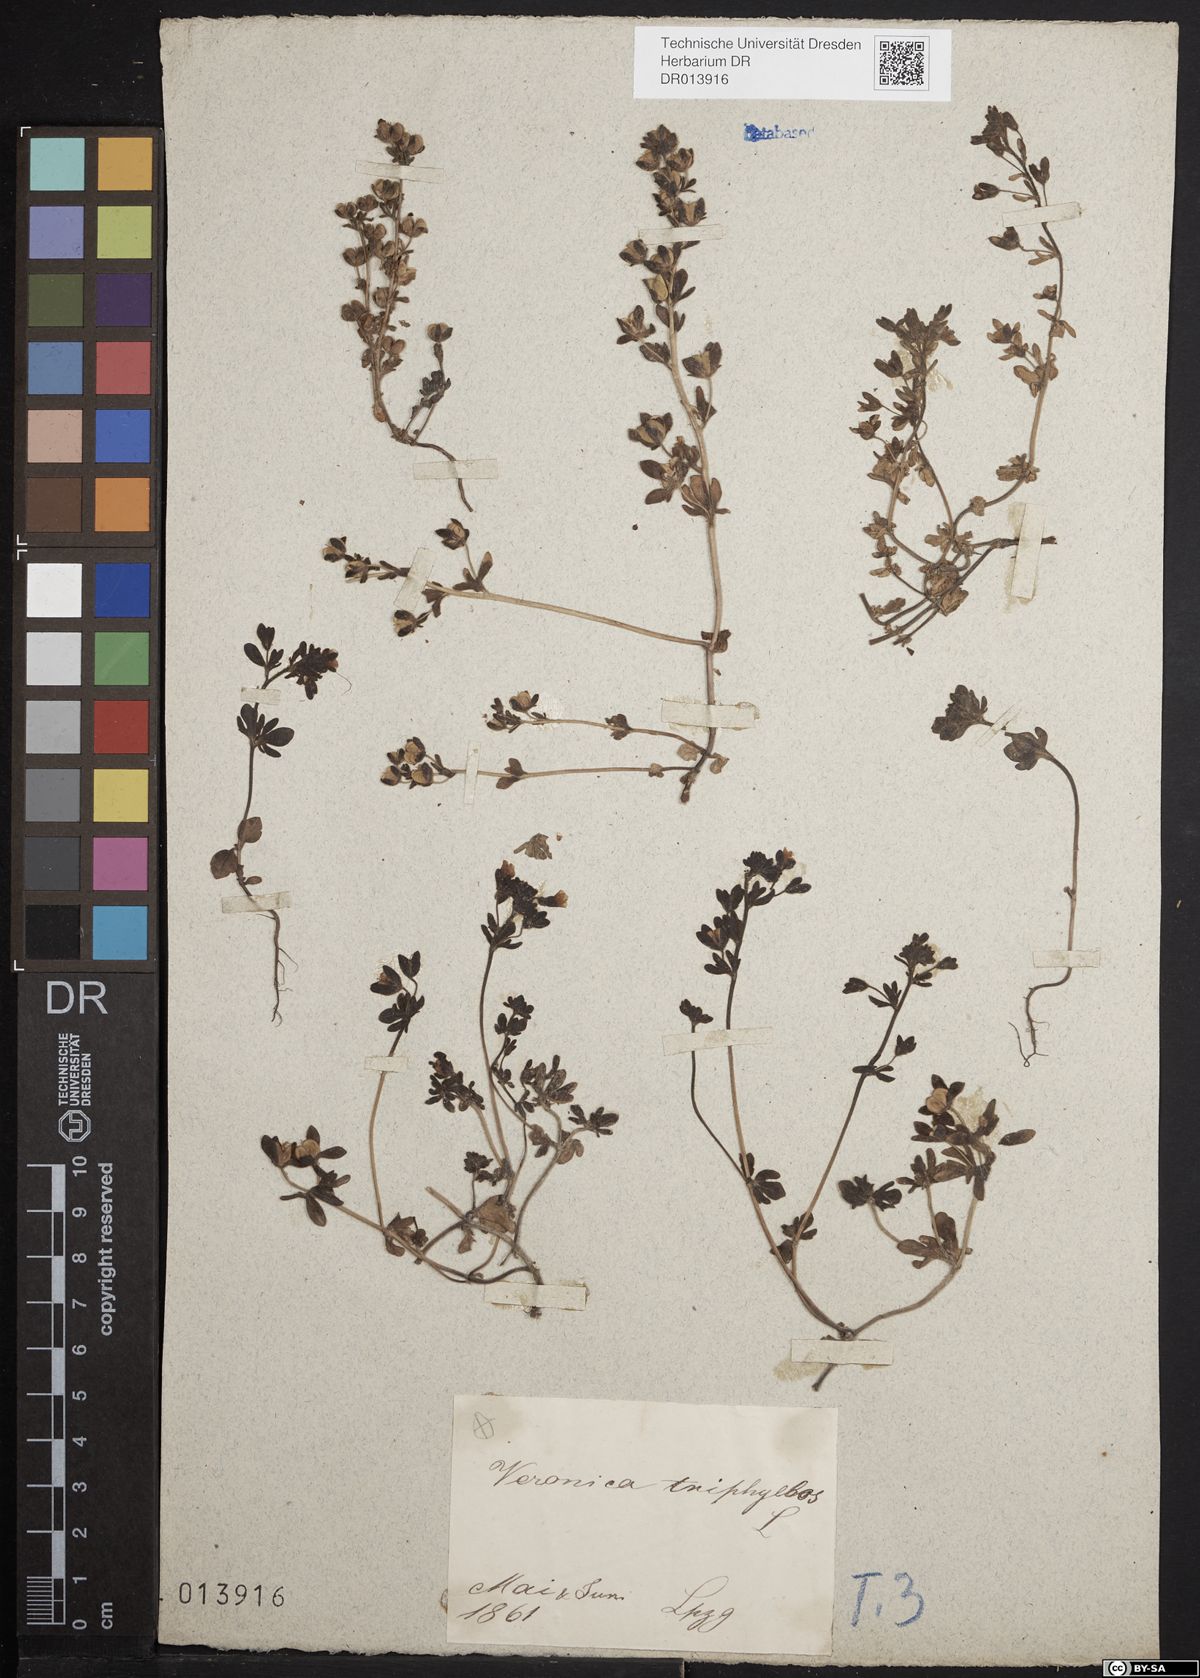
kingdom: Plantae
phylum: Tracheophyta
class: Magnoliopsida
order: Lamiales
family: Plantaginaceae
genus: Veronica
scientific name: Veronica triphyllos
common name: Fingered speedwell
